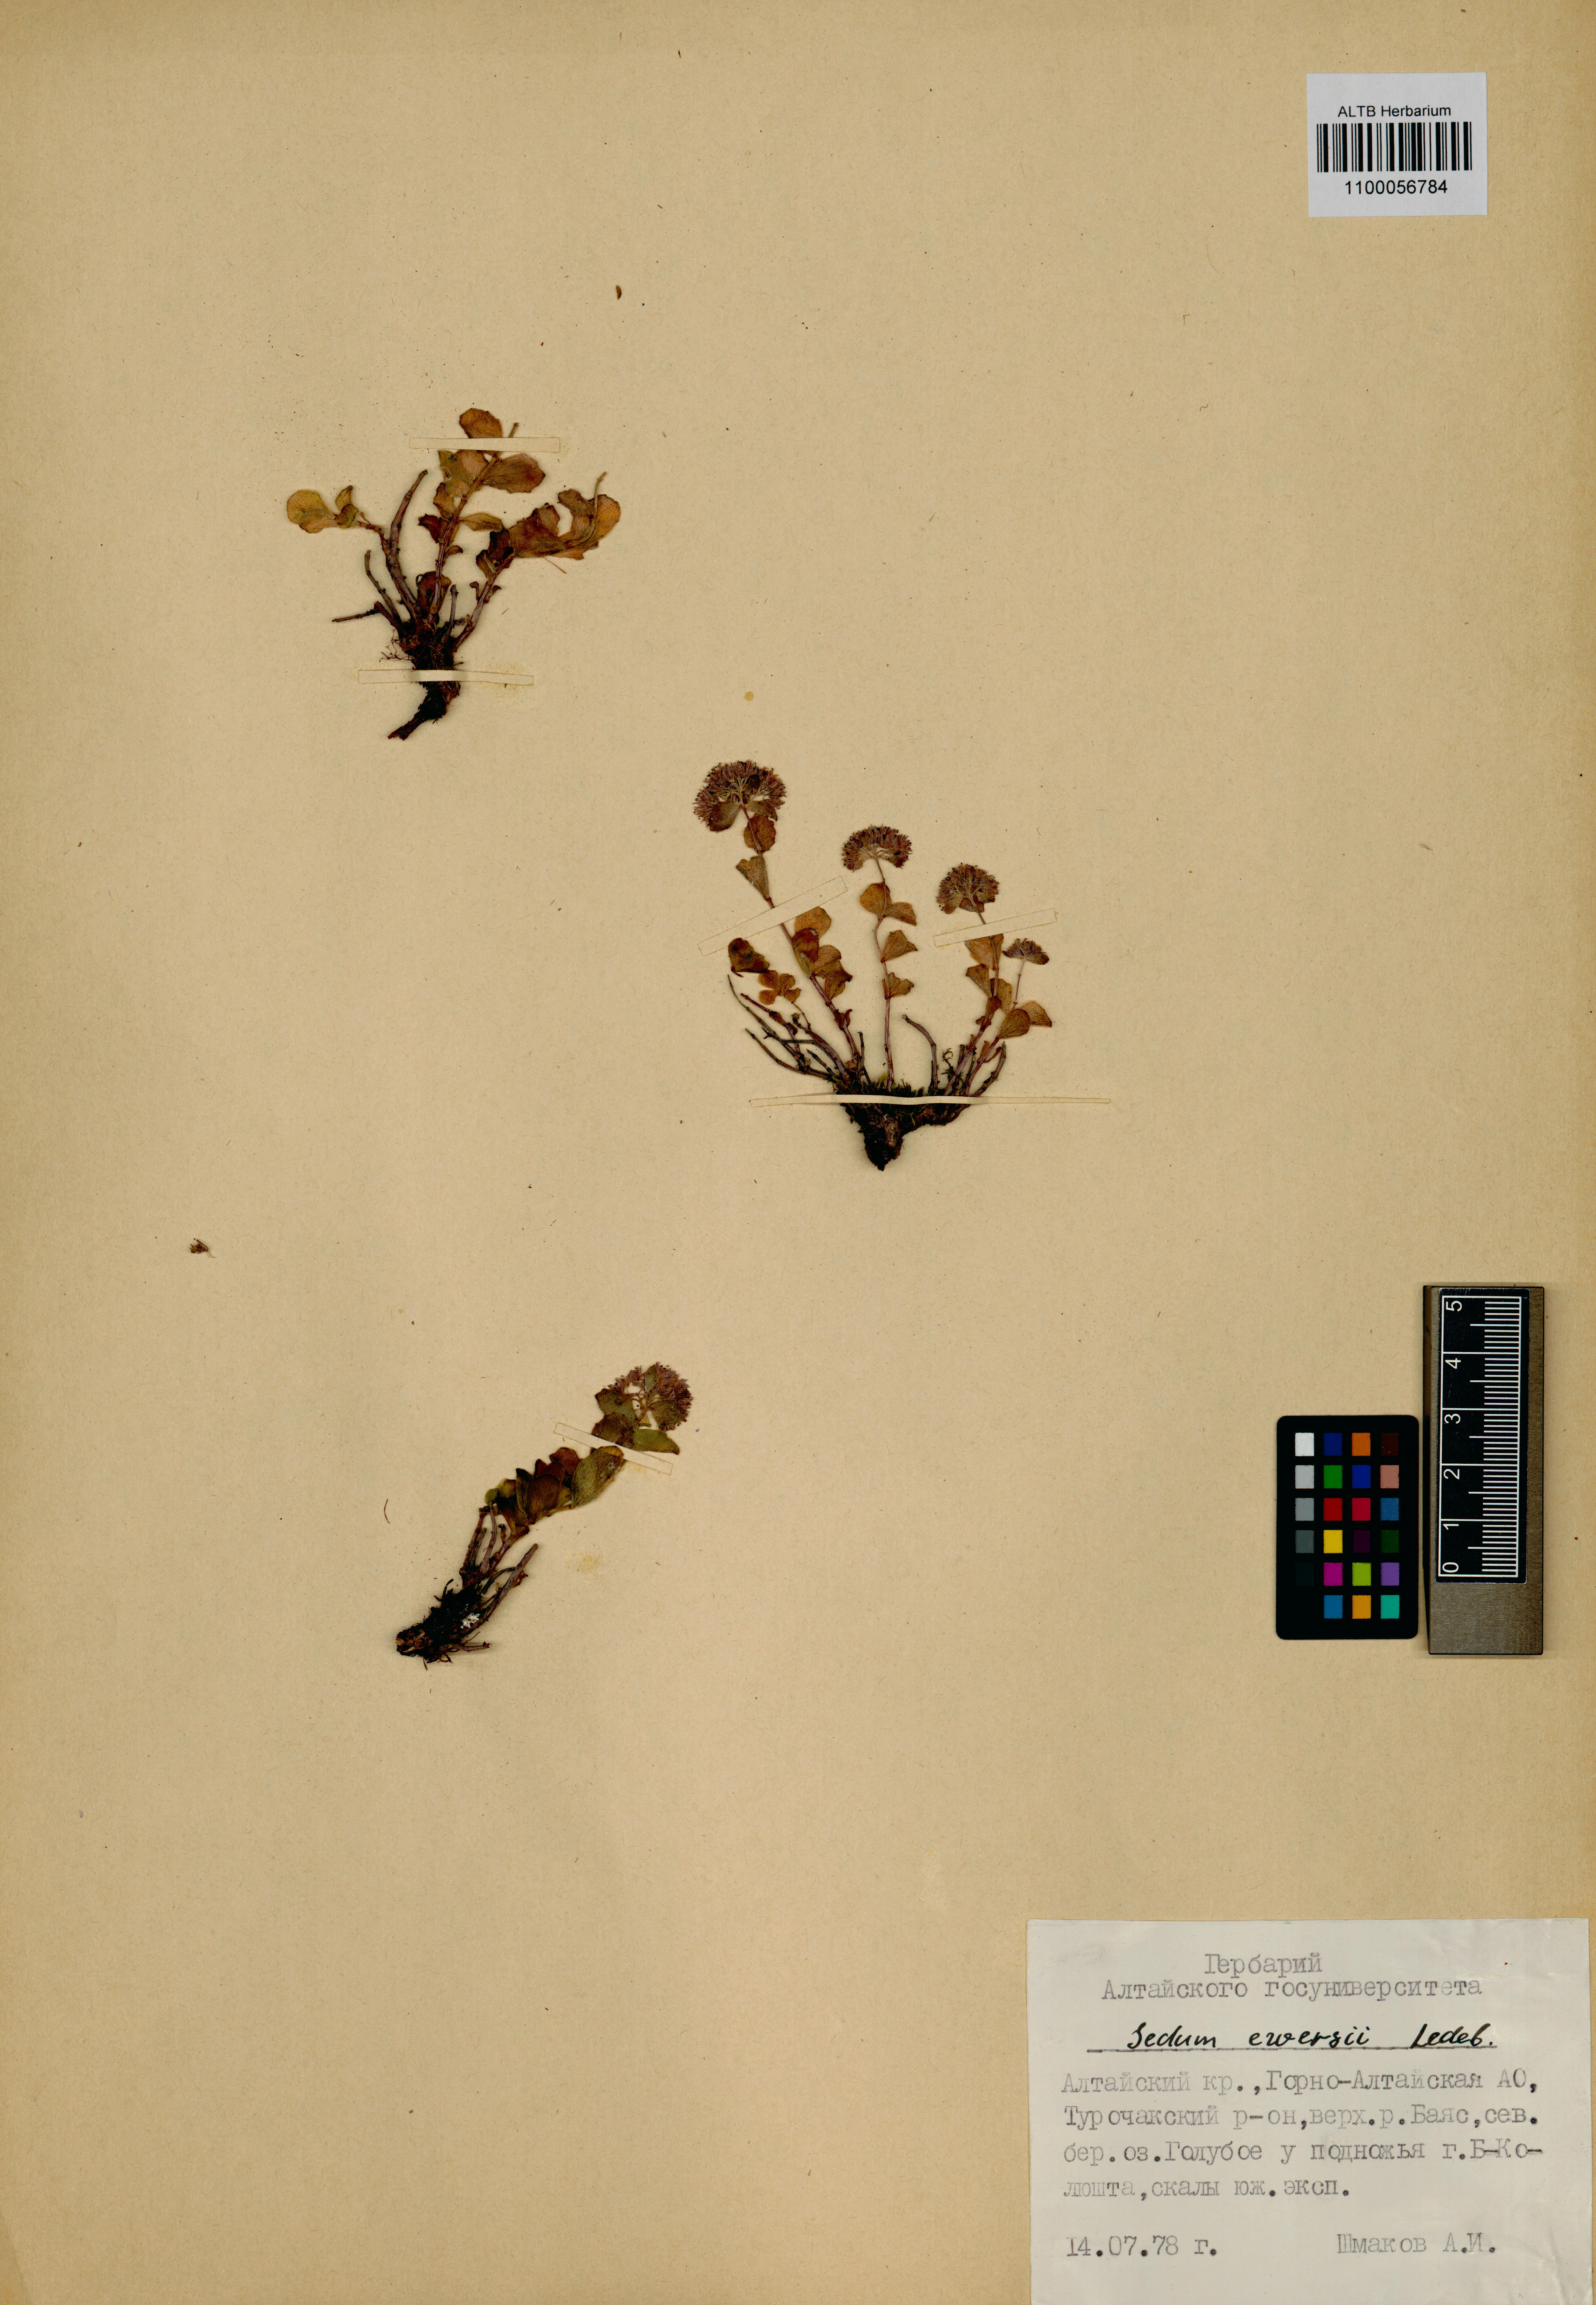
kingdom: Plantae
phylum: Tracheophyta
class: Magnoliopsida
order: Saxifragales
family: Crassulaceae
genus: Hylotelephium
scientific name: Hylotelephium ewersii
